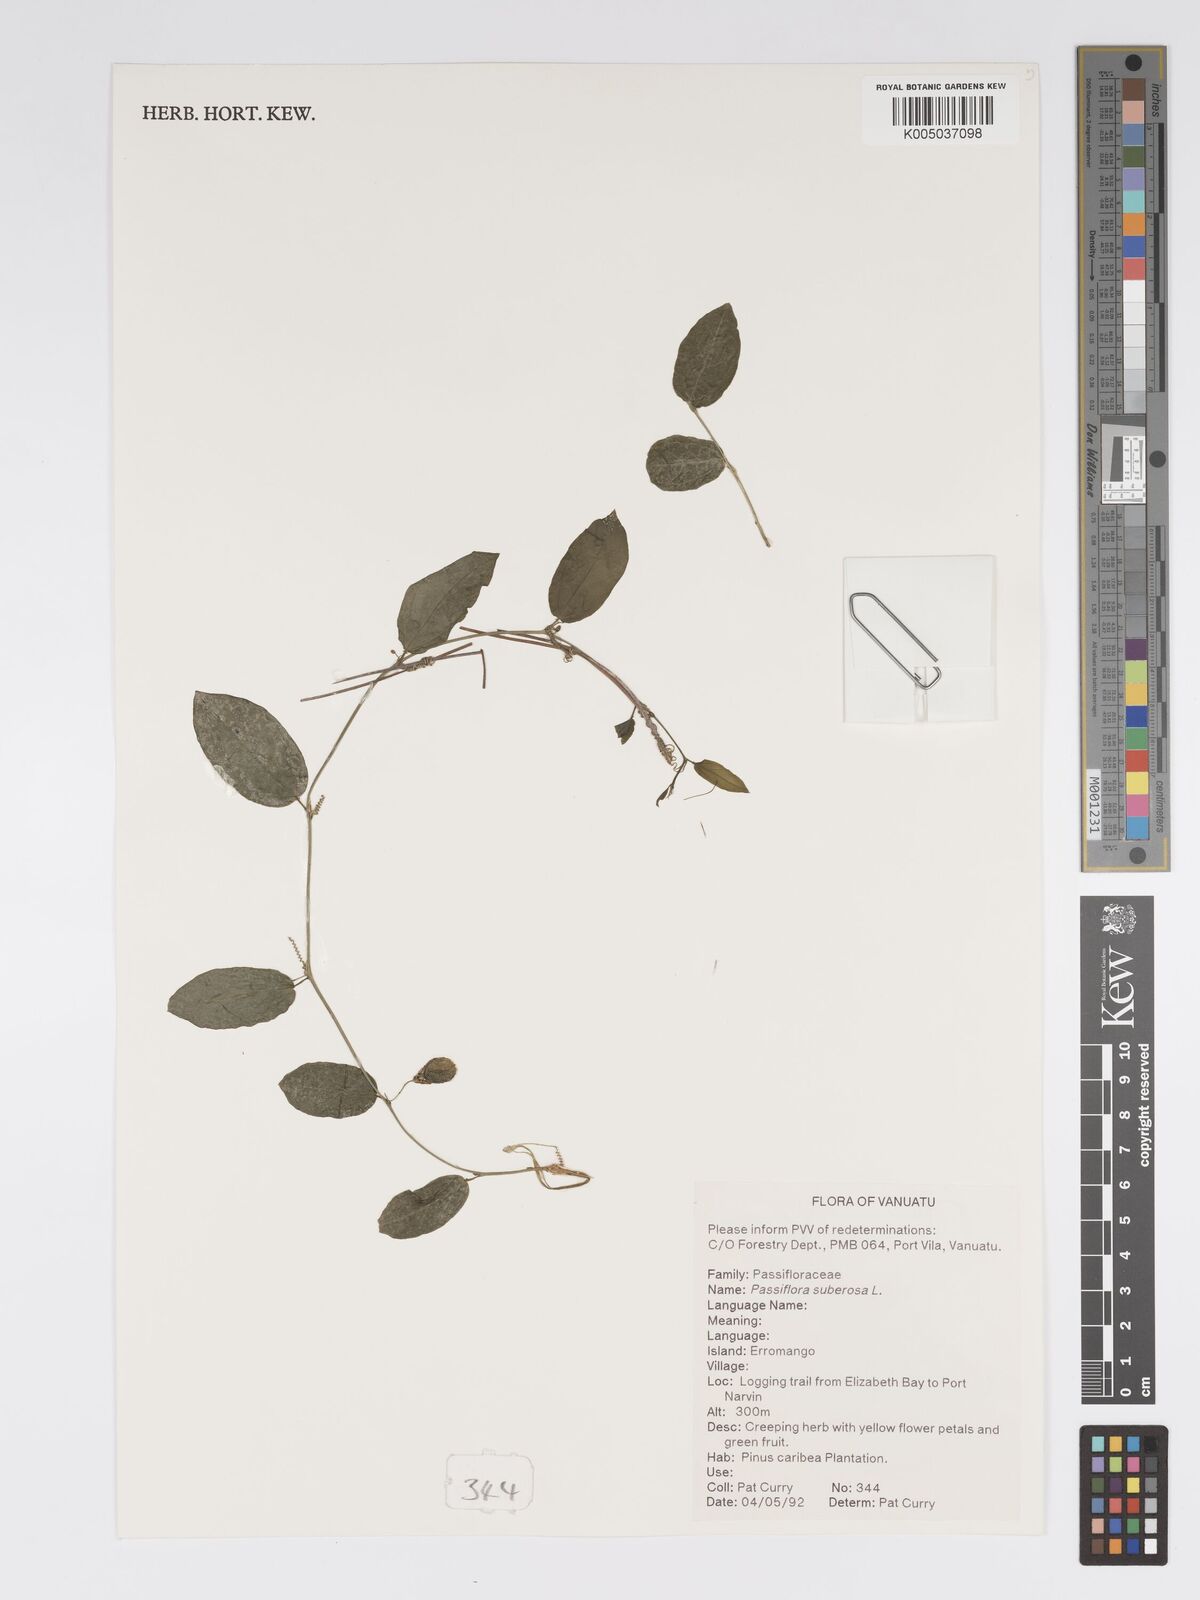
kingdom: Plantae
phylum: Tracheophyta
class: Magnoliopsida
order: Malpighiales
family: Passifloraceae
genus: Passiflora
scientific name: Passiflora suberosa
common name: Wild passionfruit
